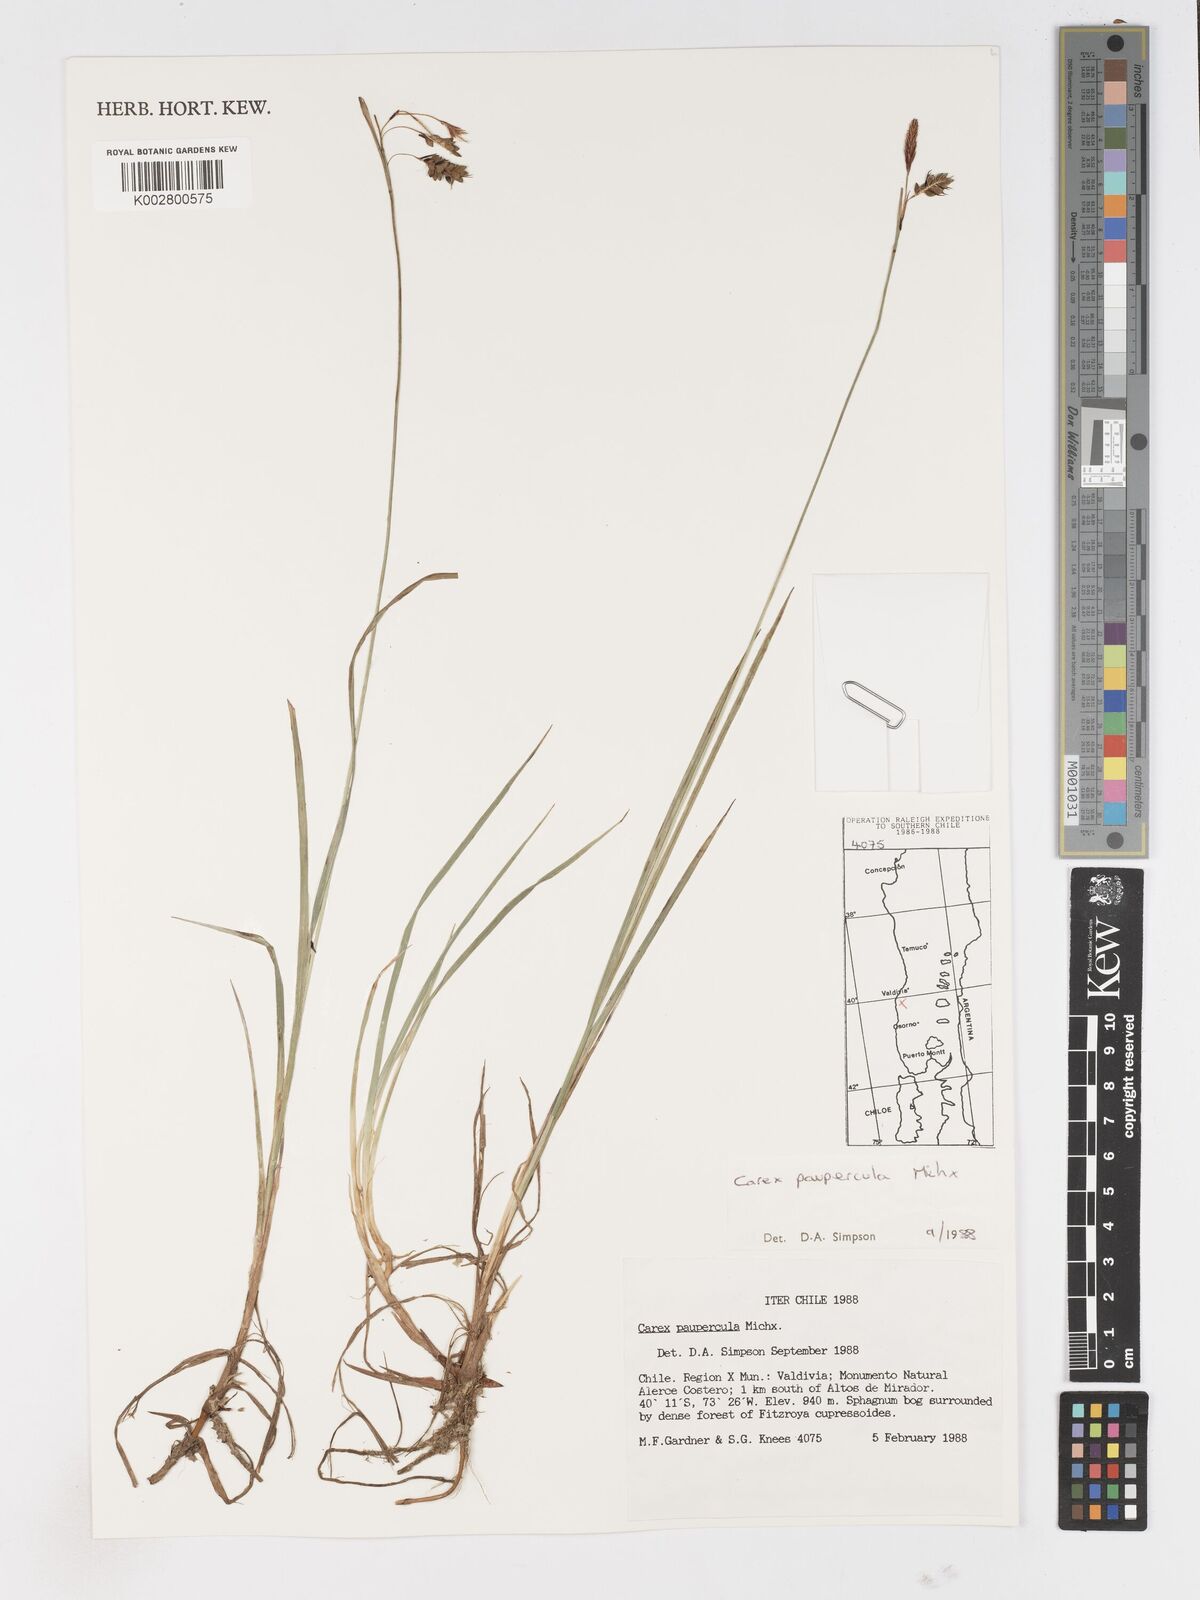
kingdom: Plantae
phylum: Tracheophyta
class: Liliopsida
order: Poales
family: Cyperaceae
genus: Carex
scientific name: Carex magellanica
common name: Bog sedge
